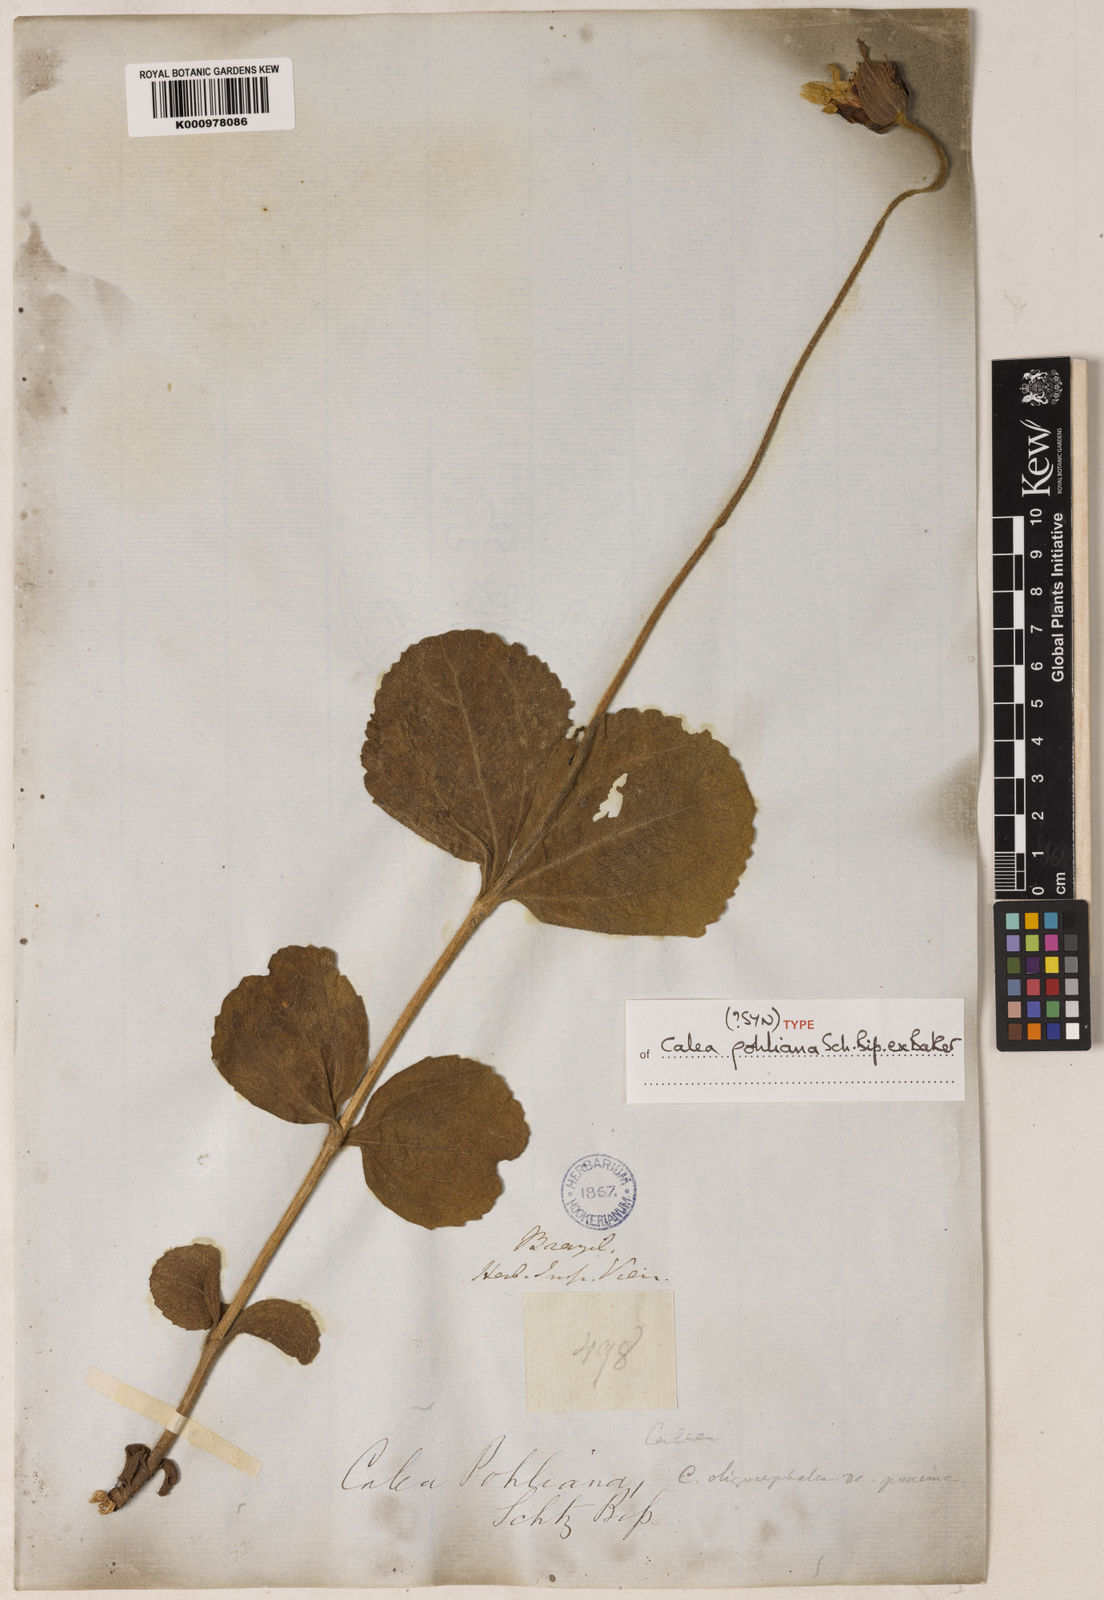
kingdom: Plantae
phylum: Tracheophyta
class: Magnoliopsida
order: Asterales
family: Asteraceae
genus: Calea
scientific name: Calea pohliana
